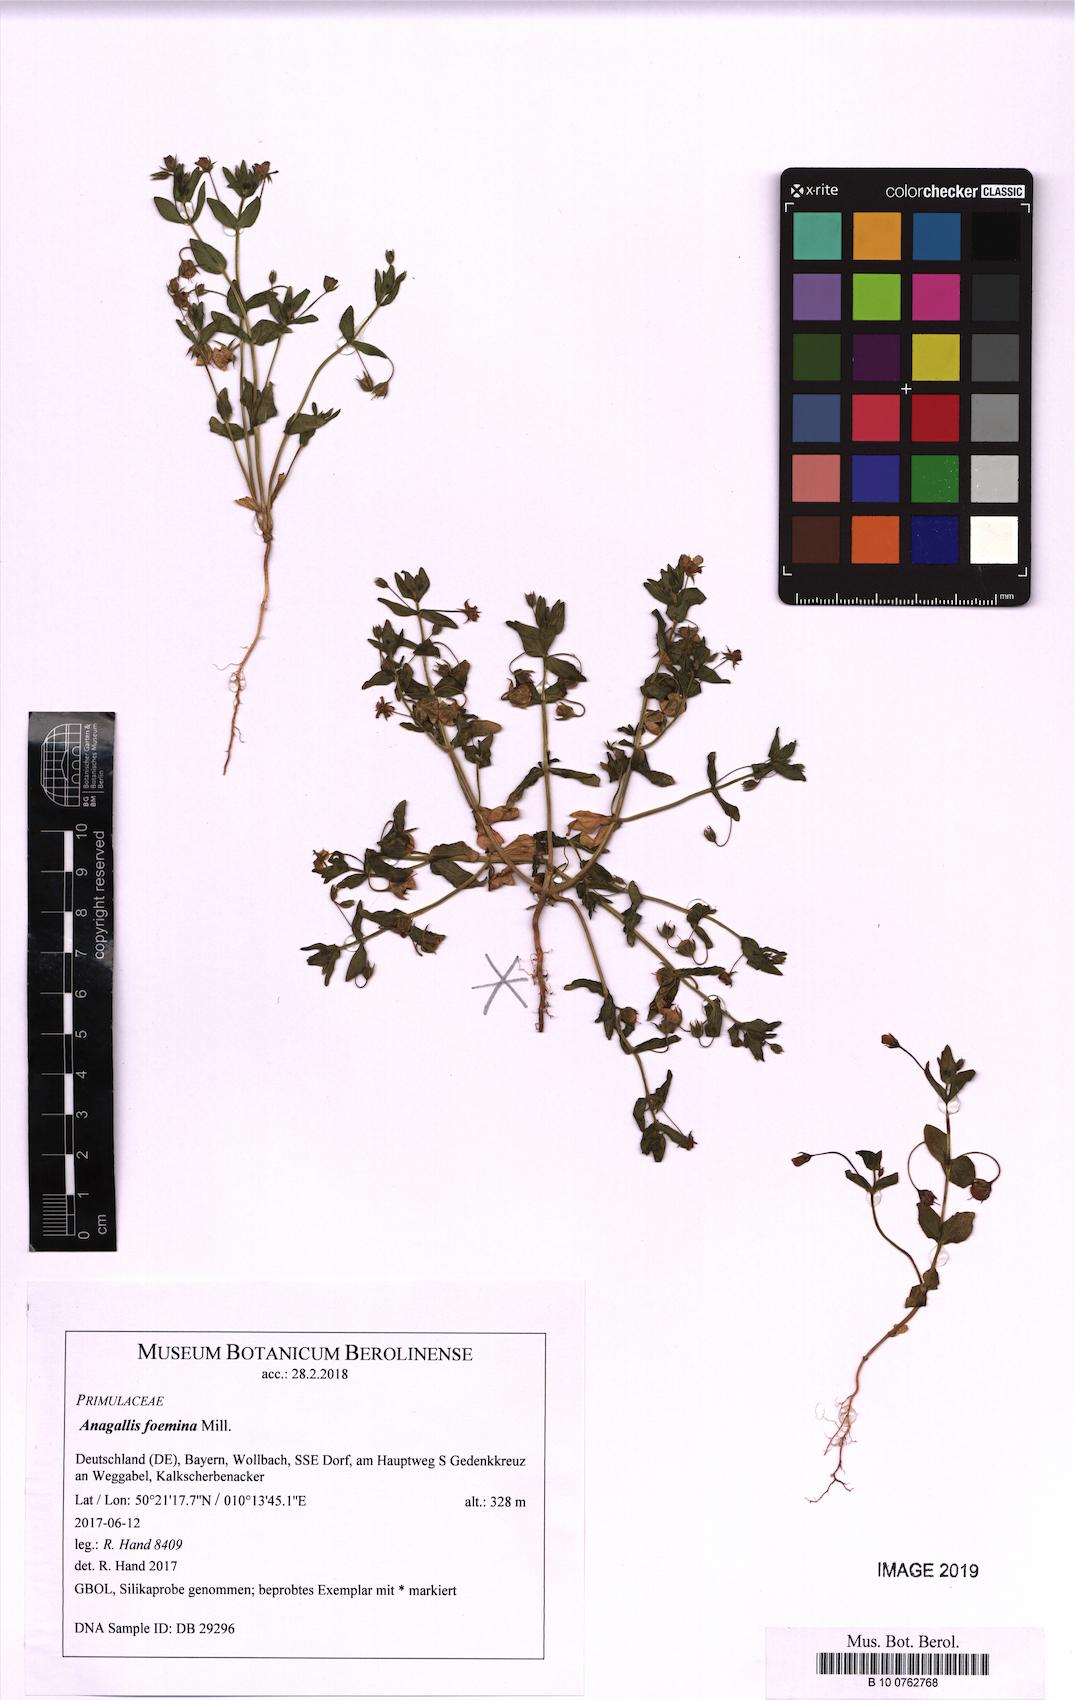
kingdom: Plantae
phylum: Tracheophyta
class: Magnoliopsida
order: Ericales
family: Primulaceae
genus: Lysimachia
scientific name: Lysimachia foemina
